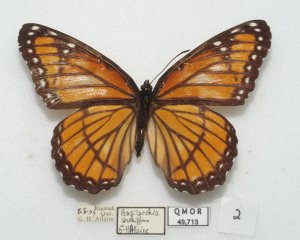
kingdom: Animalia
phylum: Arthropoda
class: Insecta
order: Lepidoptera
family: Nymphalidae
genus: Limenitis
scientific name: Limenitis archippus
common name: Viceroy
